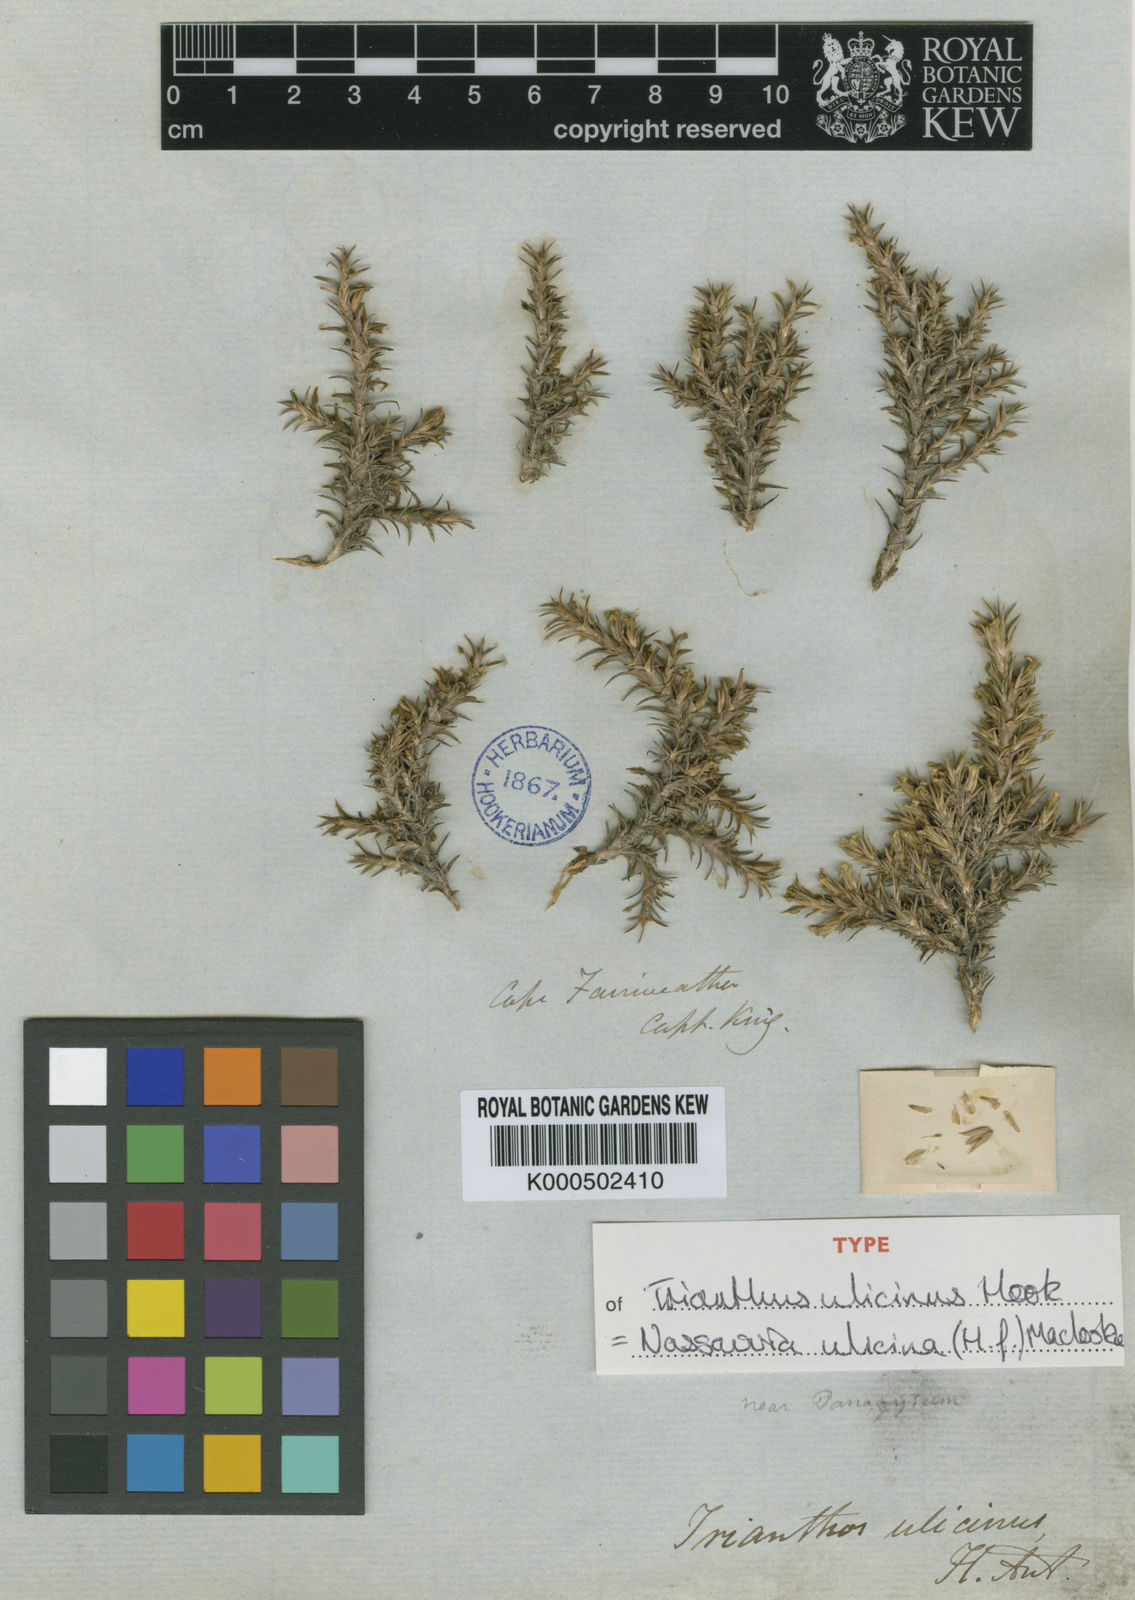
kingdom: Plantae
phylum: Tracheophyta
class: Magnoliopsida
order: Asterales
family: Asteraceae
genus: Nassauvia
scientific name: Nassauvia ulicina
